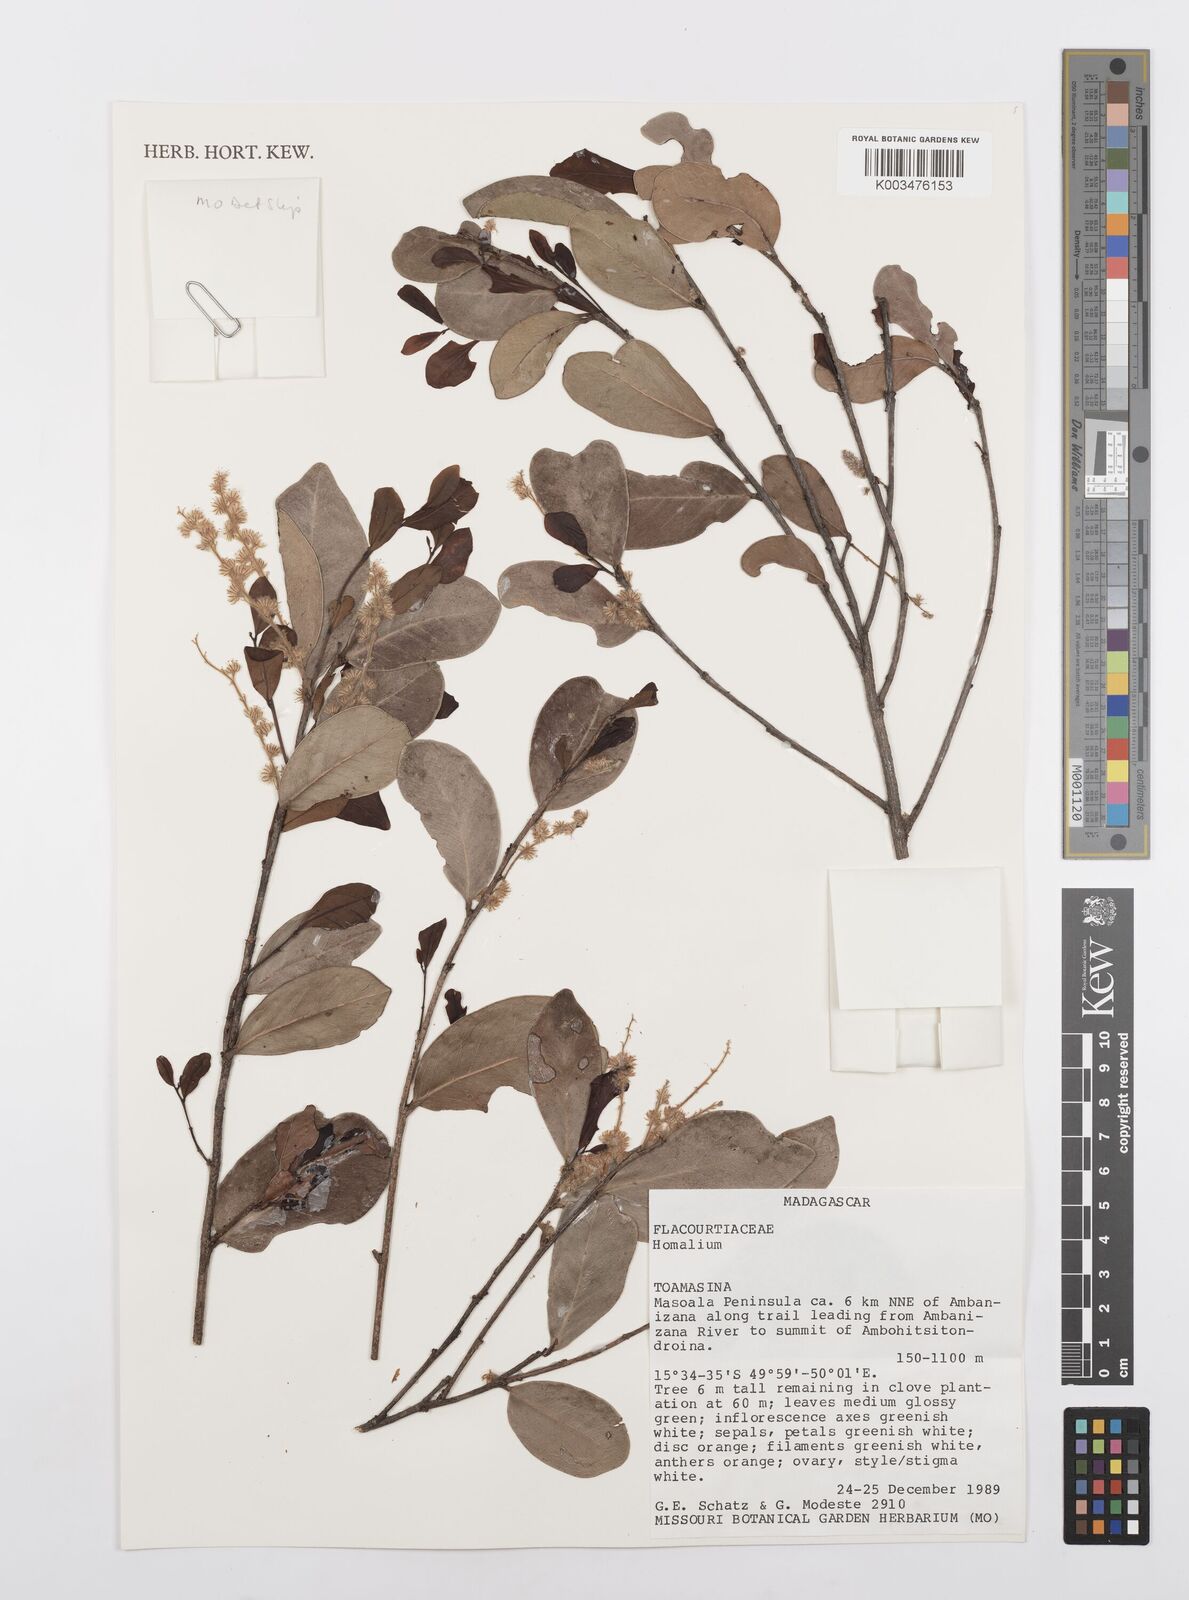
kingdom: Plantae
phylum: Tracheophyta
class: Magnoliopsida
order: Malpighiales
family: Salicaceae
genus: Homalium
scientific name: Homalium
